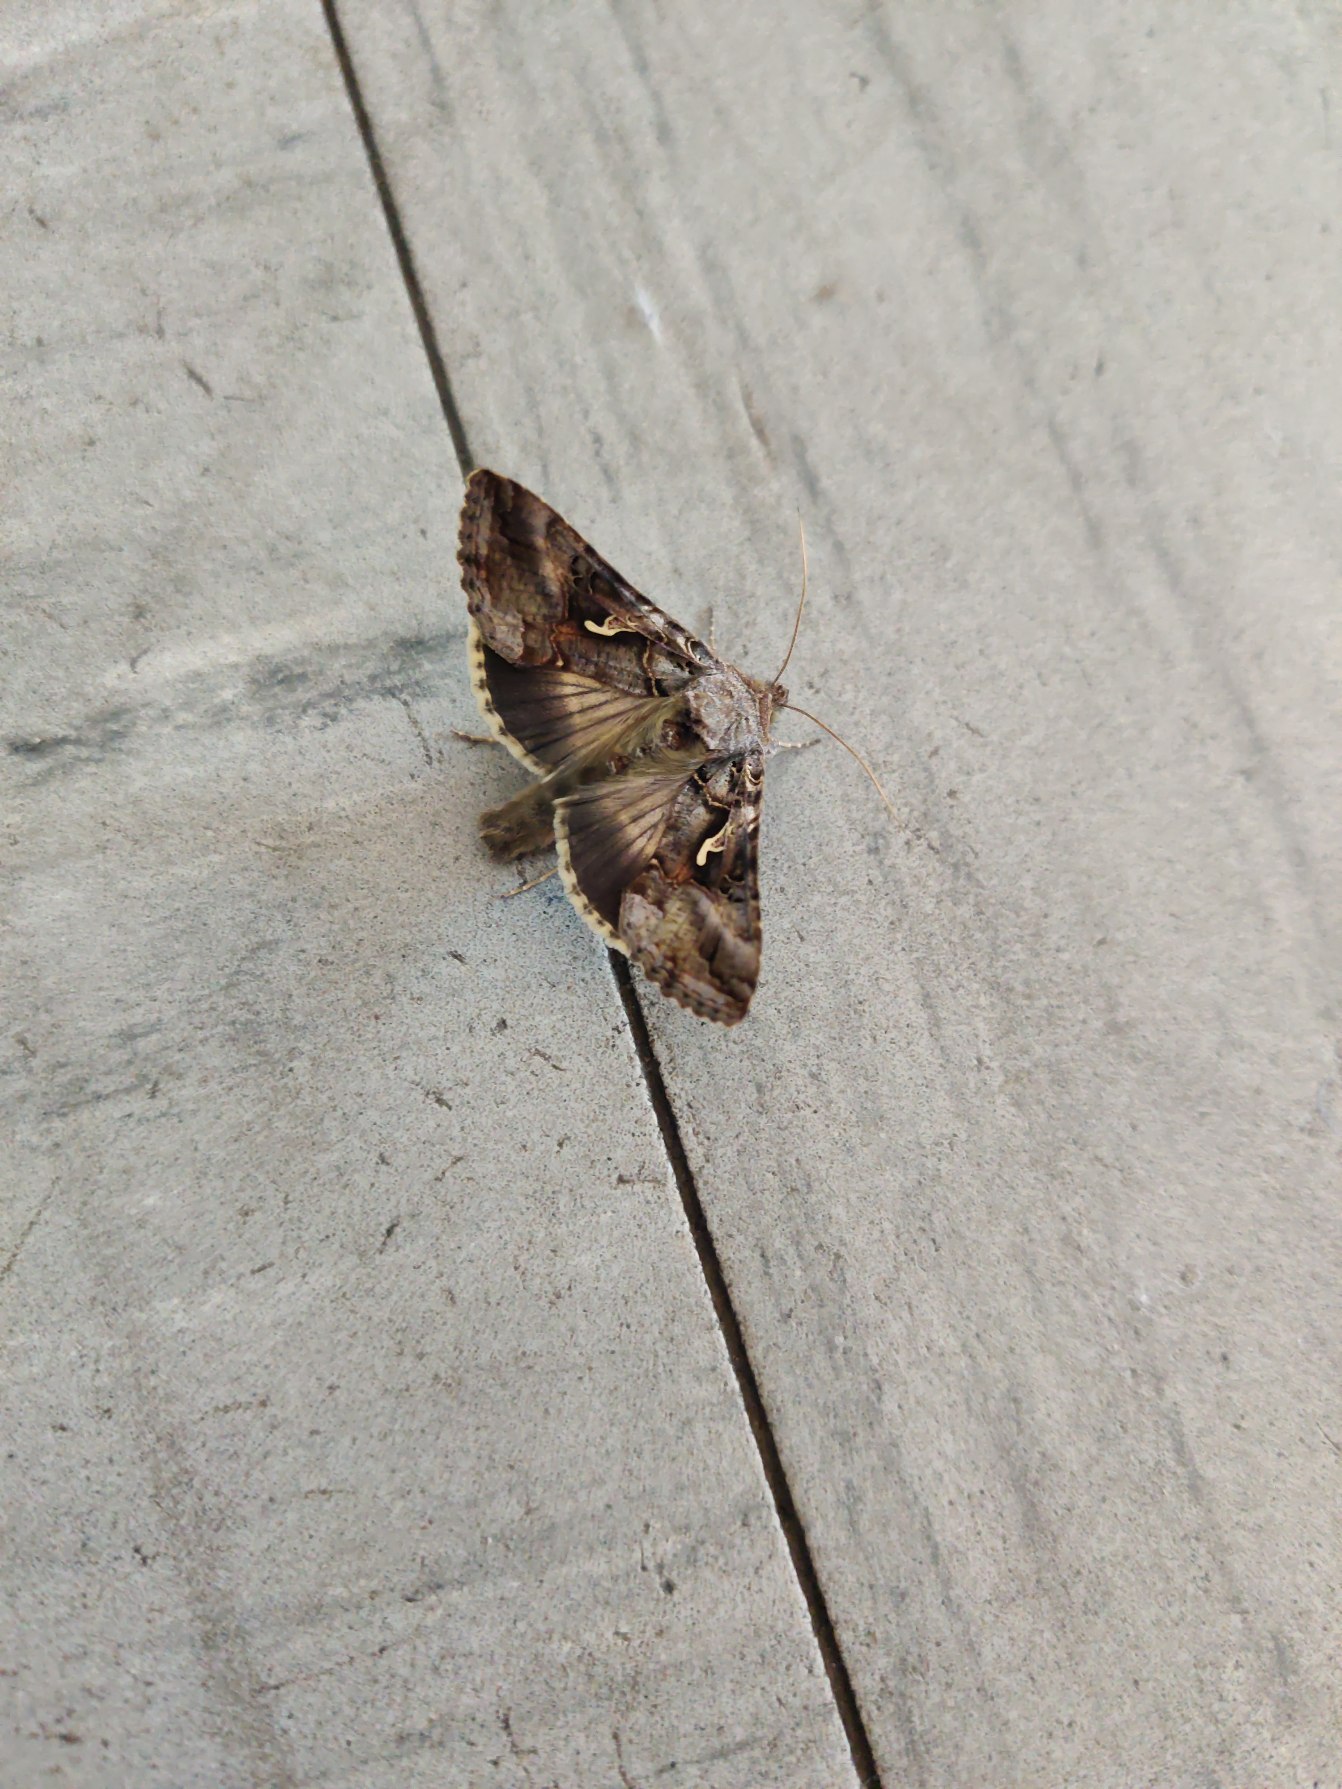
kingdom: Animalia
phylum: Arthropoda
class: Insecta
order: Lepidoptera
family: Noctuidae
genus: Autographa
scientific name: Autographa gamma
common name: Gammaugle
